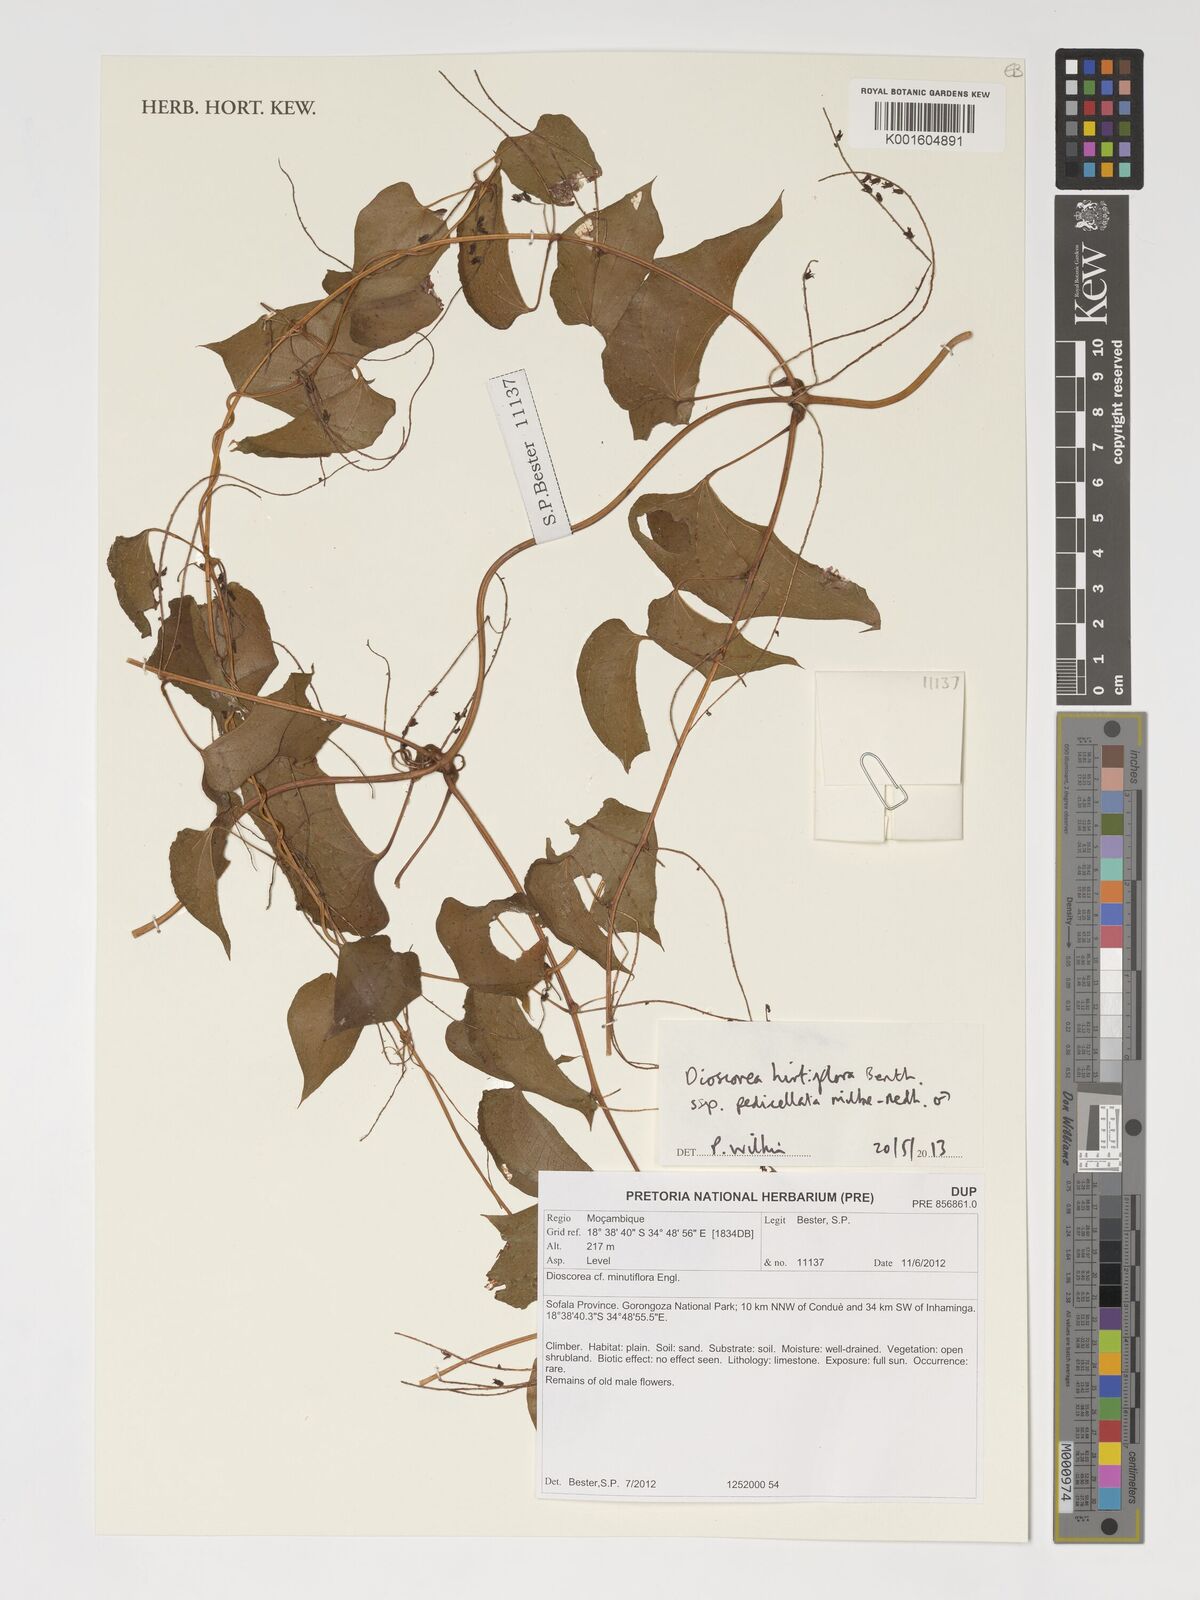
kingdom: Plantae
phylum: Tracheophyta
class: Liliopsida
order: Dioscoreales
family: Dioscoreaceae
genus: Dioscorea
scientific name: Dioscorea hirtiflora
